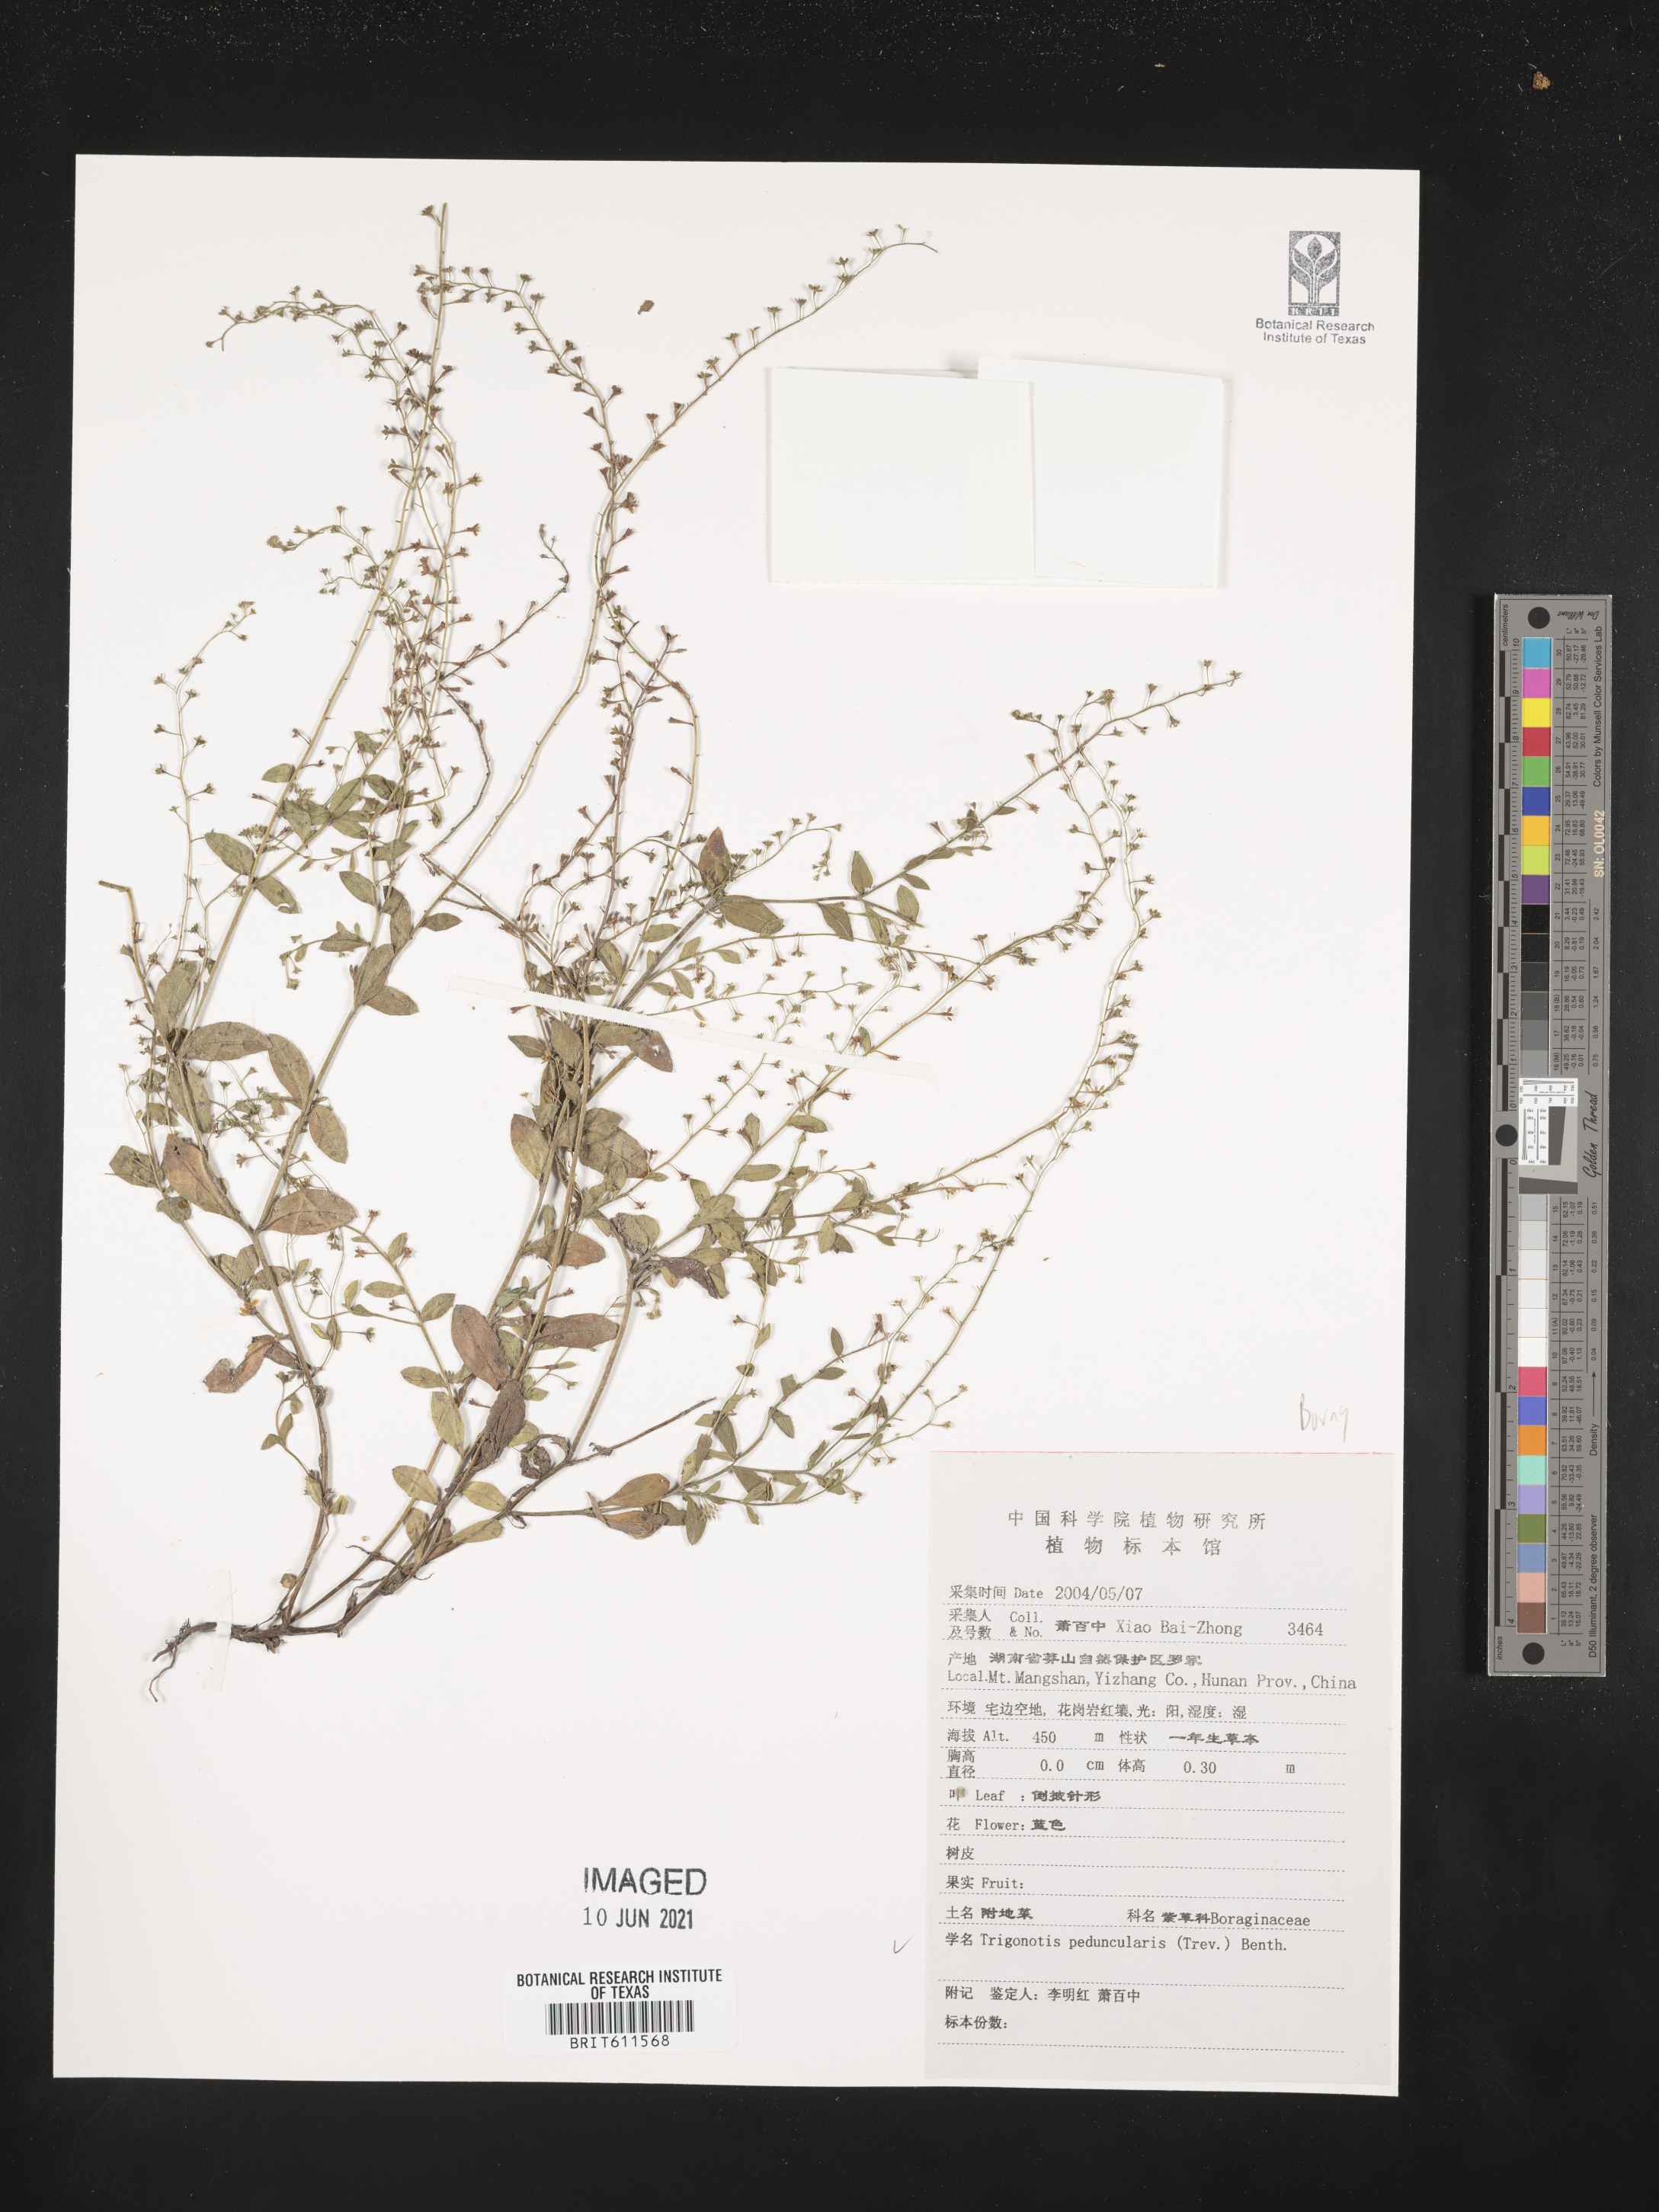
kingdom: Plantae
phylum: Tracheophyta
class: Magnoliopsida
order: Boraginales
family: Boraginaceae
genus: Trigonotis
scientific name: Trigonotis peduncularis
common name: Cucumber herb
